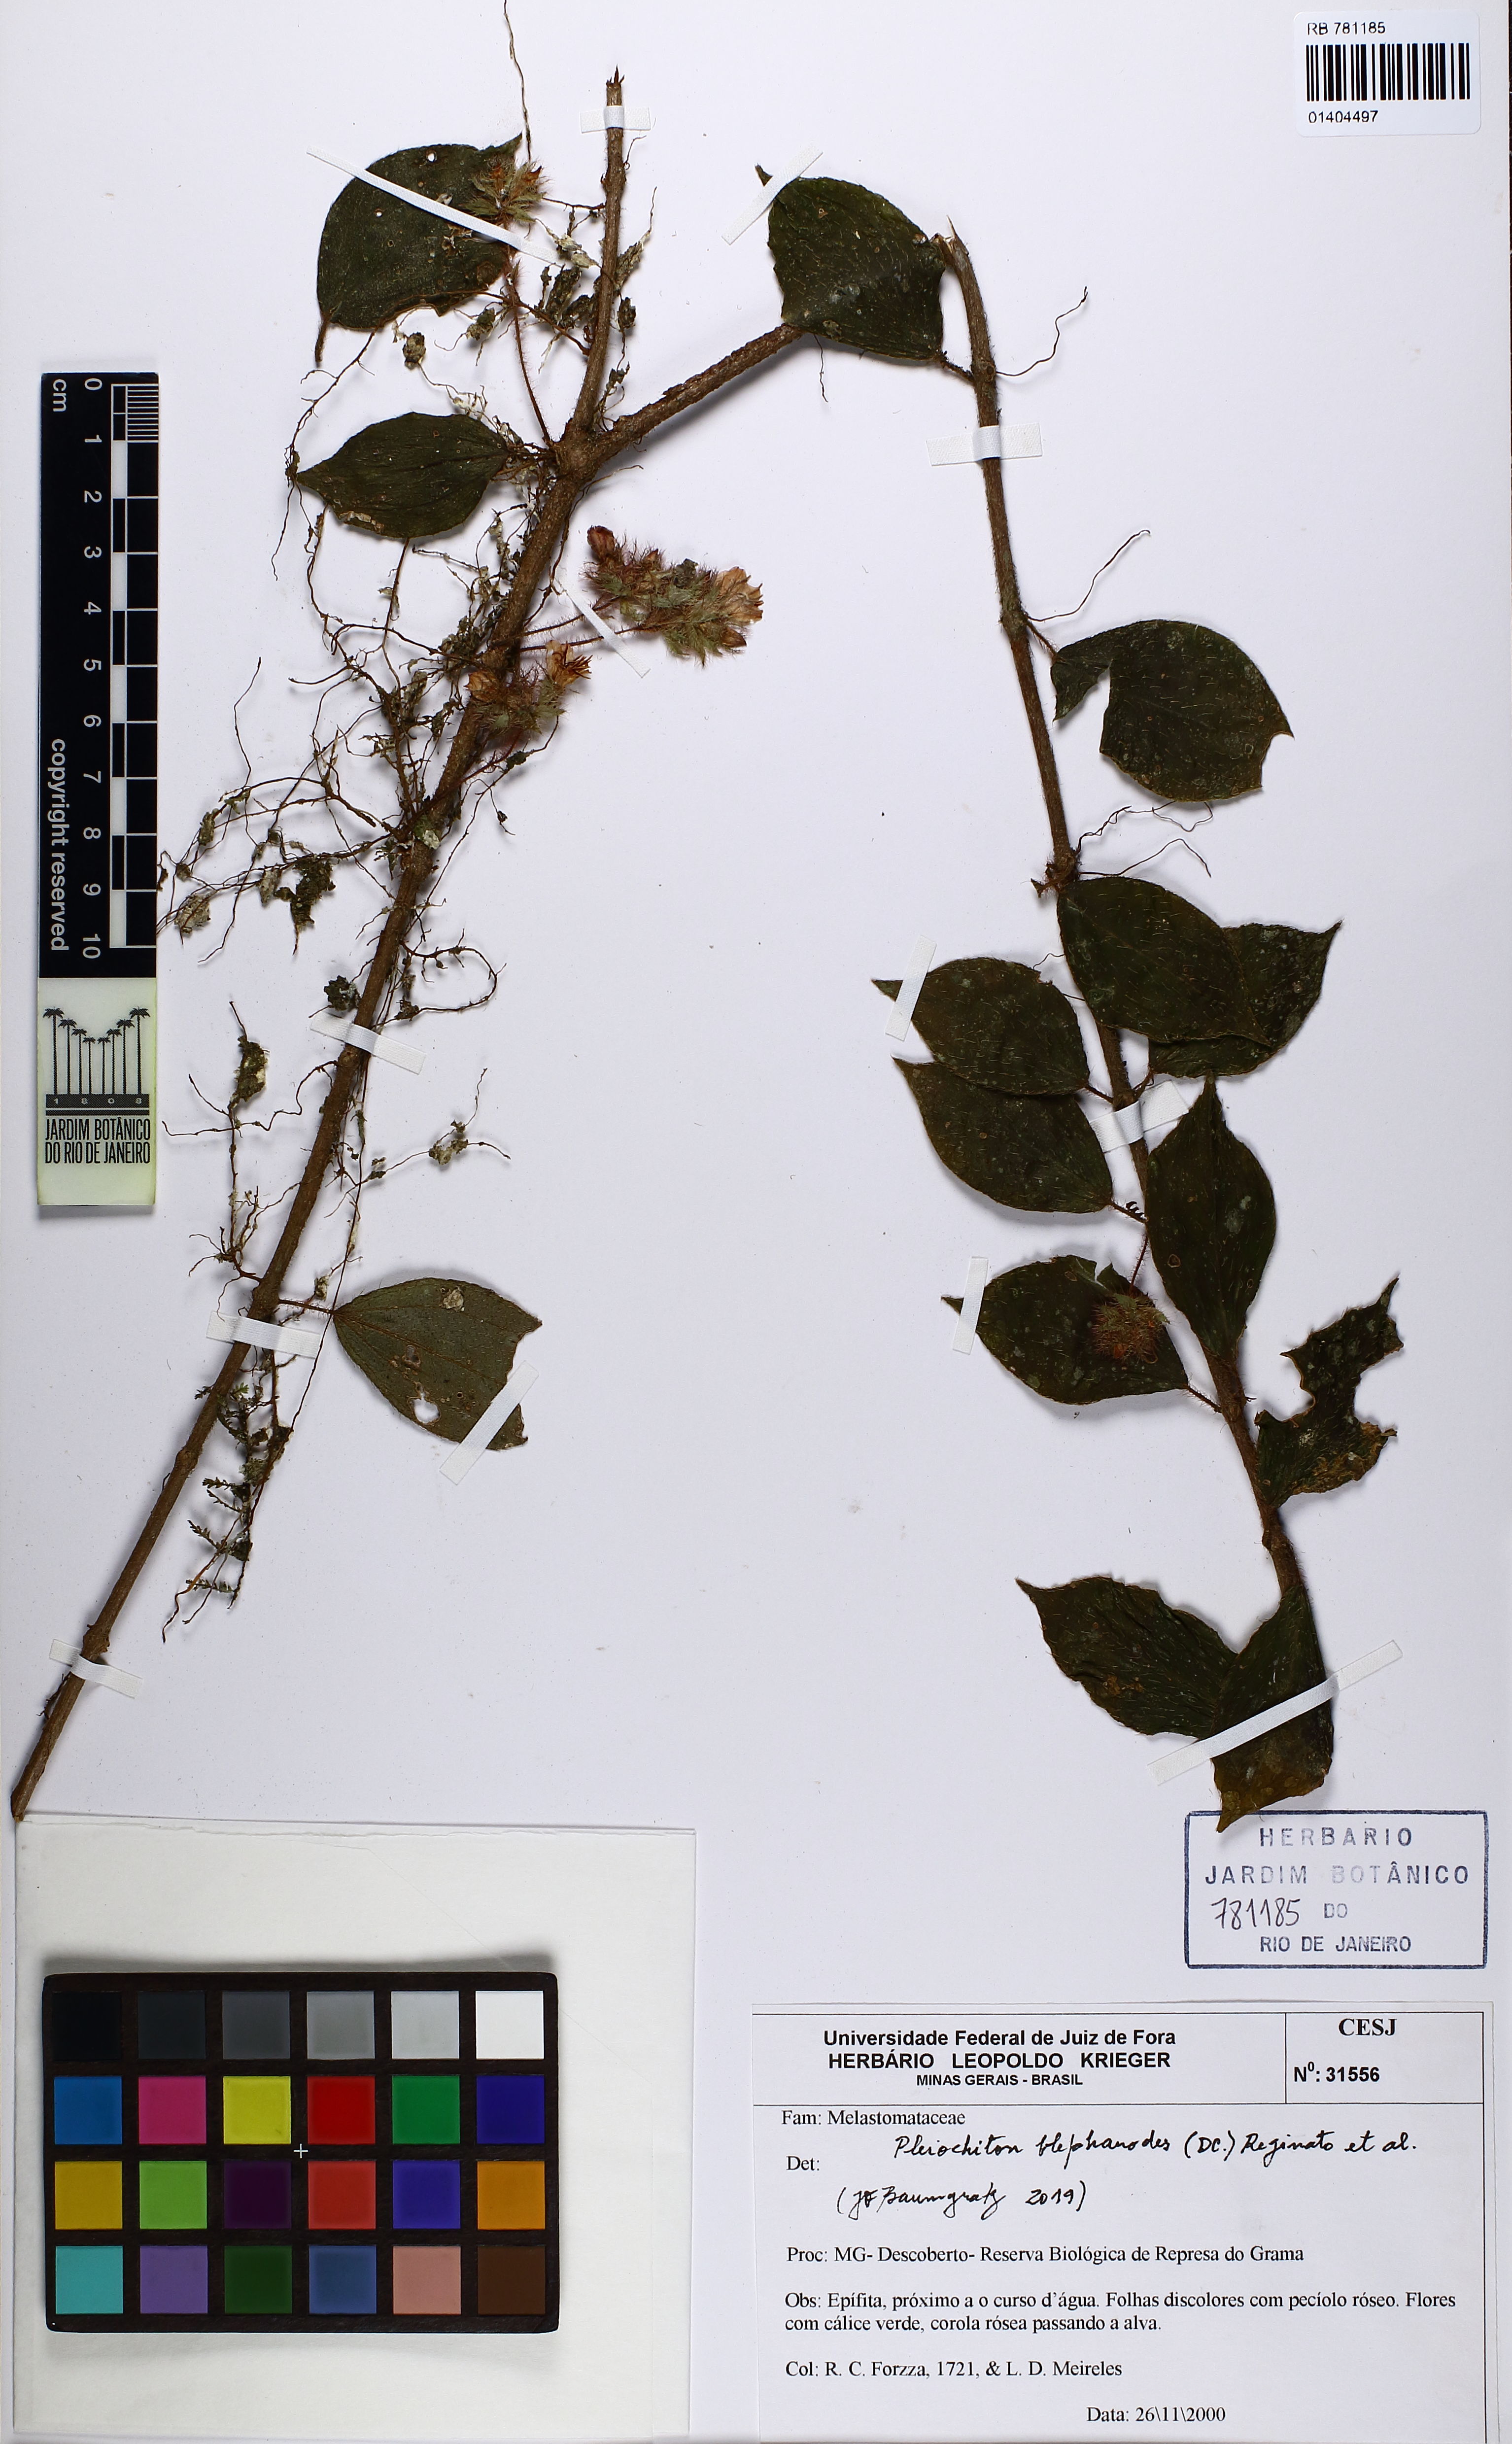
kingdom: Plantae
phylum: Tracheophyta
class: Magnoliopsida
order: Myrtales
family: Melastomataceae
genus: Miconia
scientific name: Miconia blepharodes
